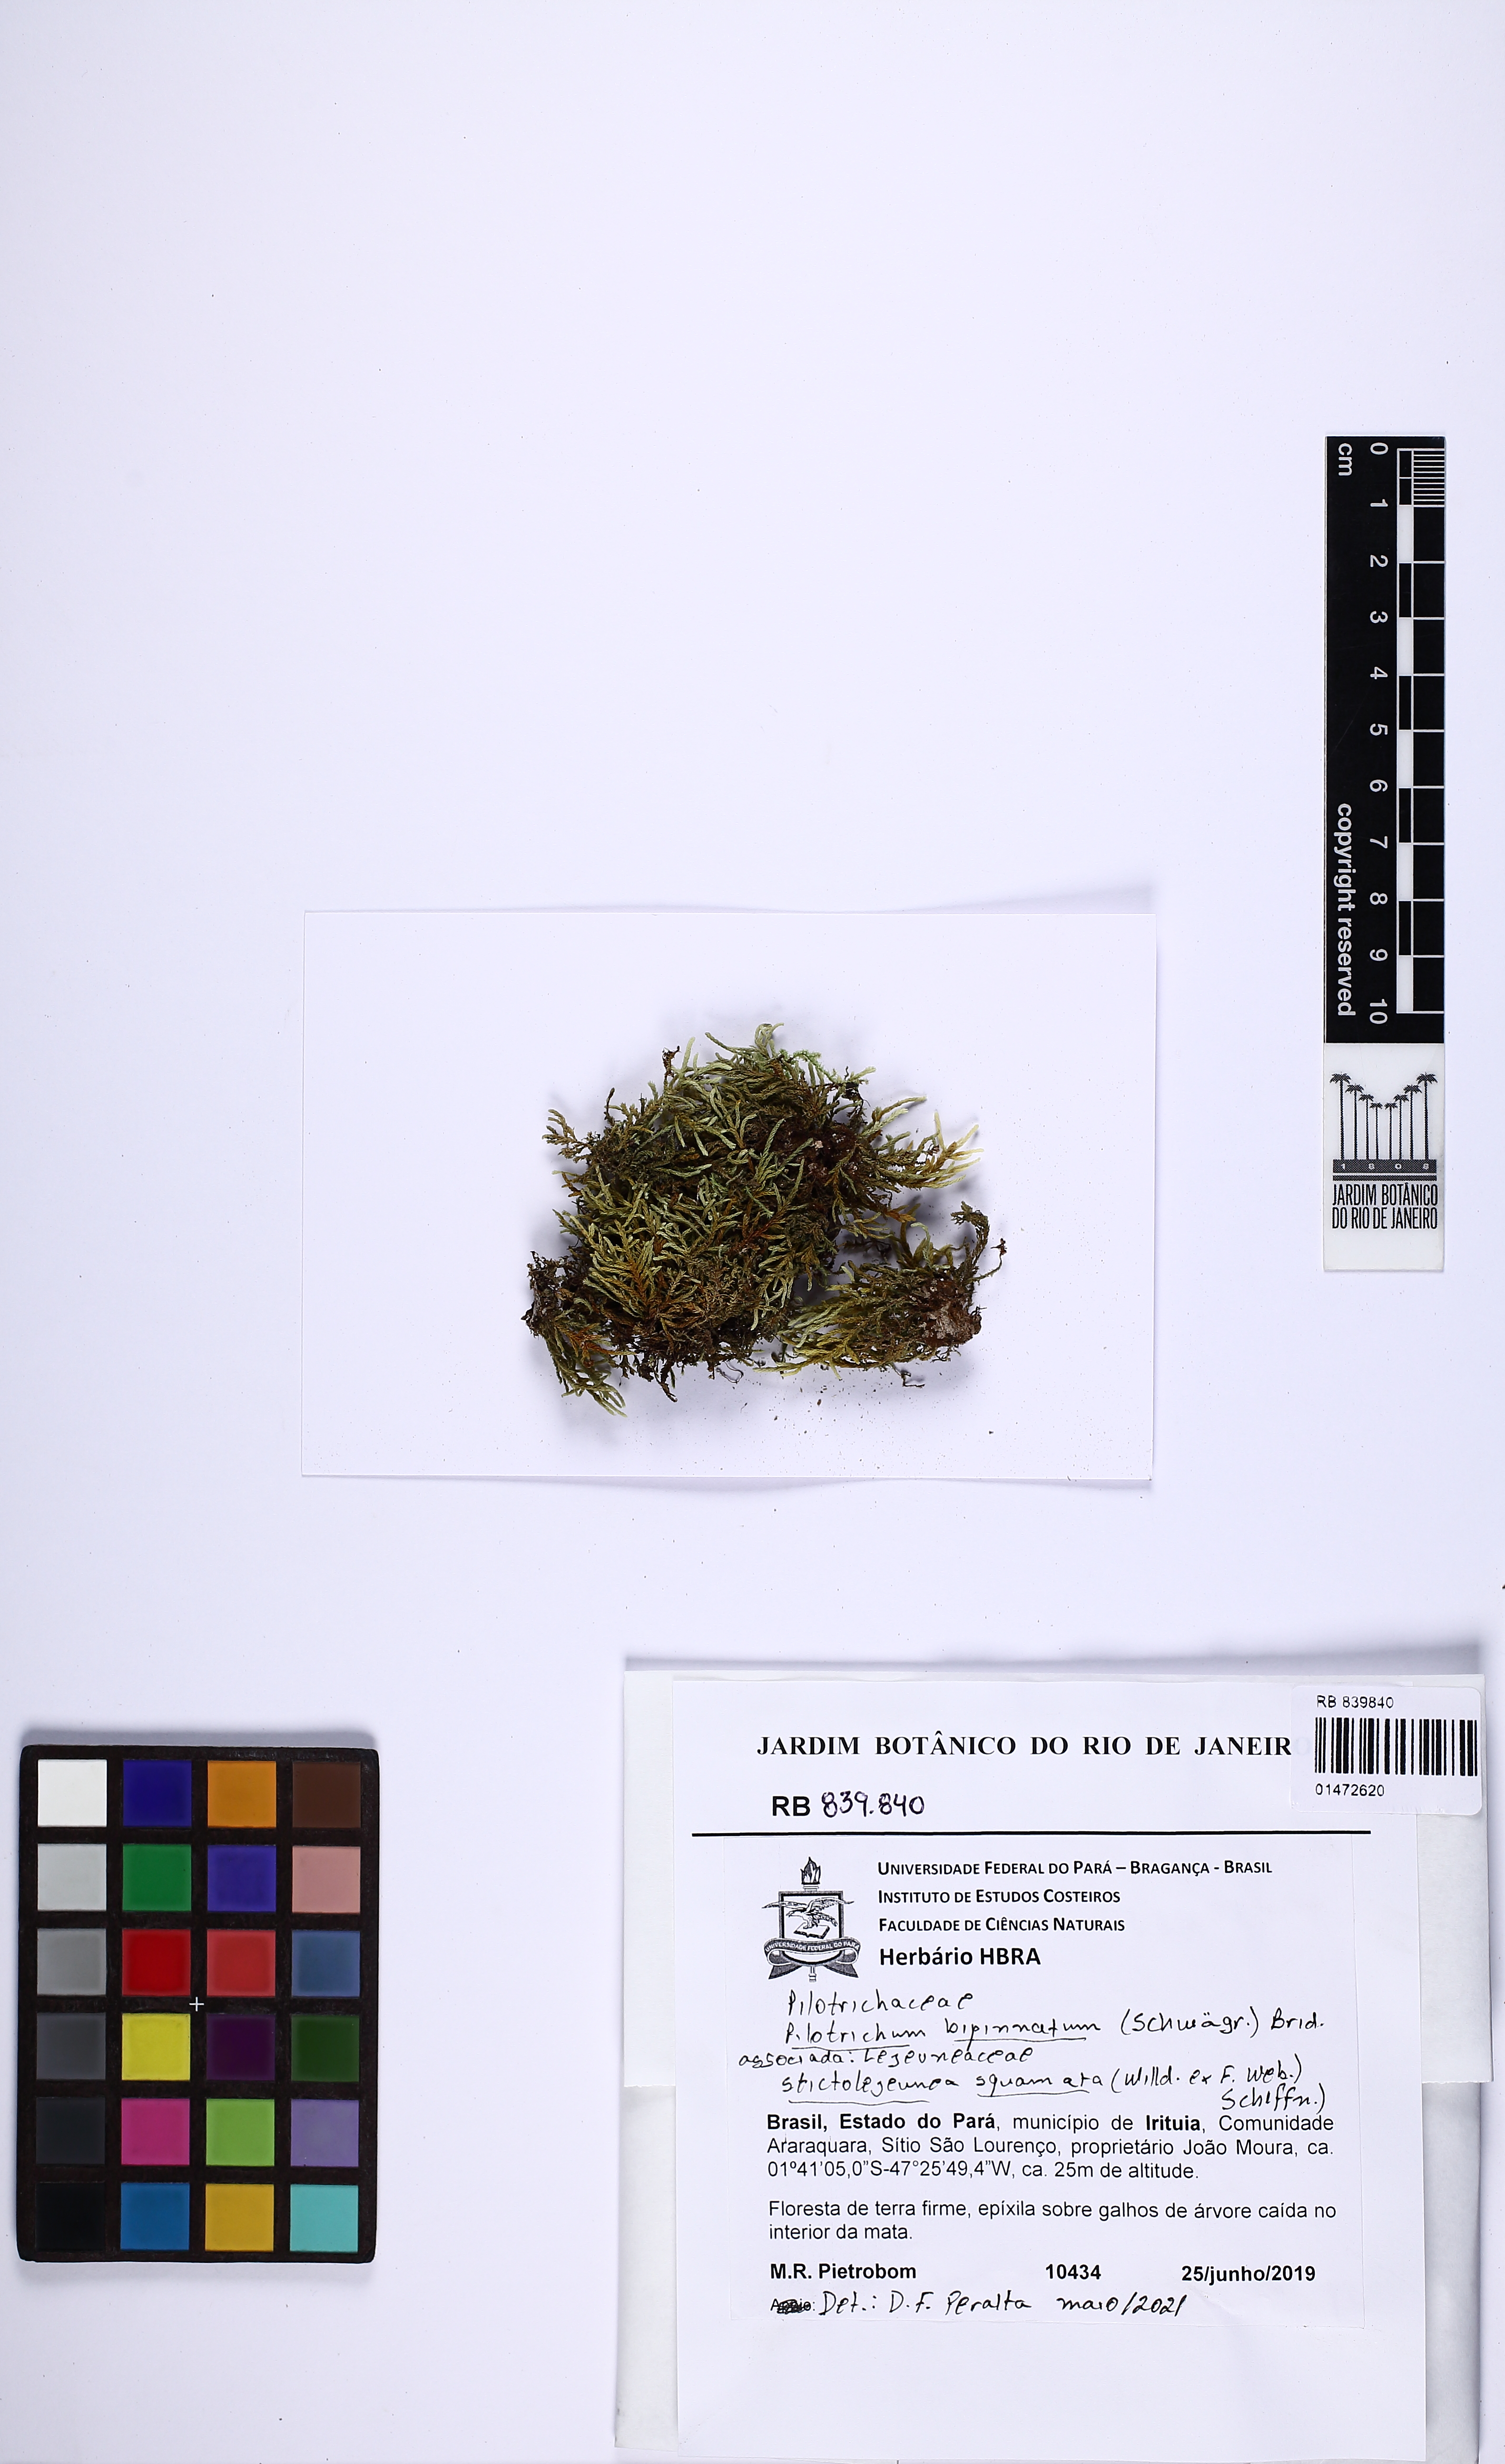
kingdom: Plantae
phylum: Bryophyta
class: Bryopsida
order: Hookeriales
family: Pilotrichaceae
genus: Pilotrichum
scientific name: Pilotrichum bipinnatum
